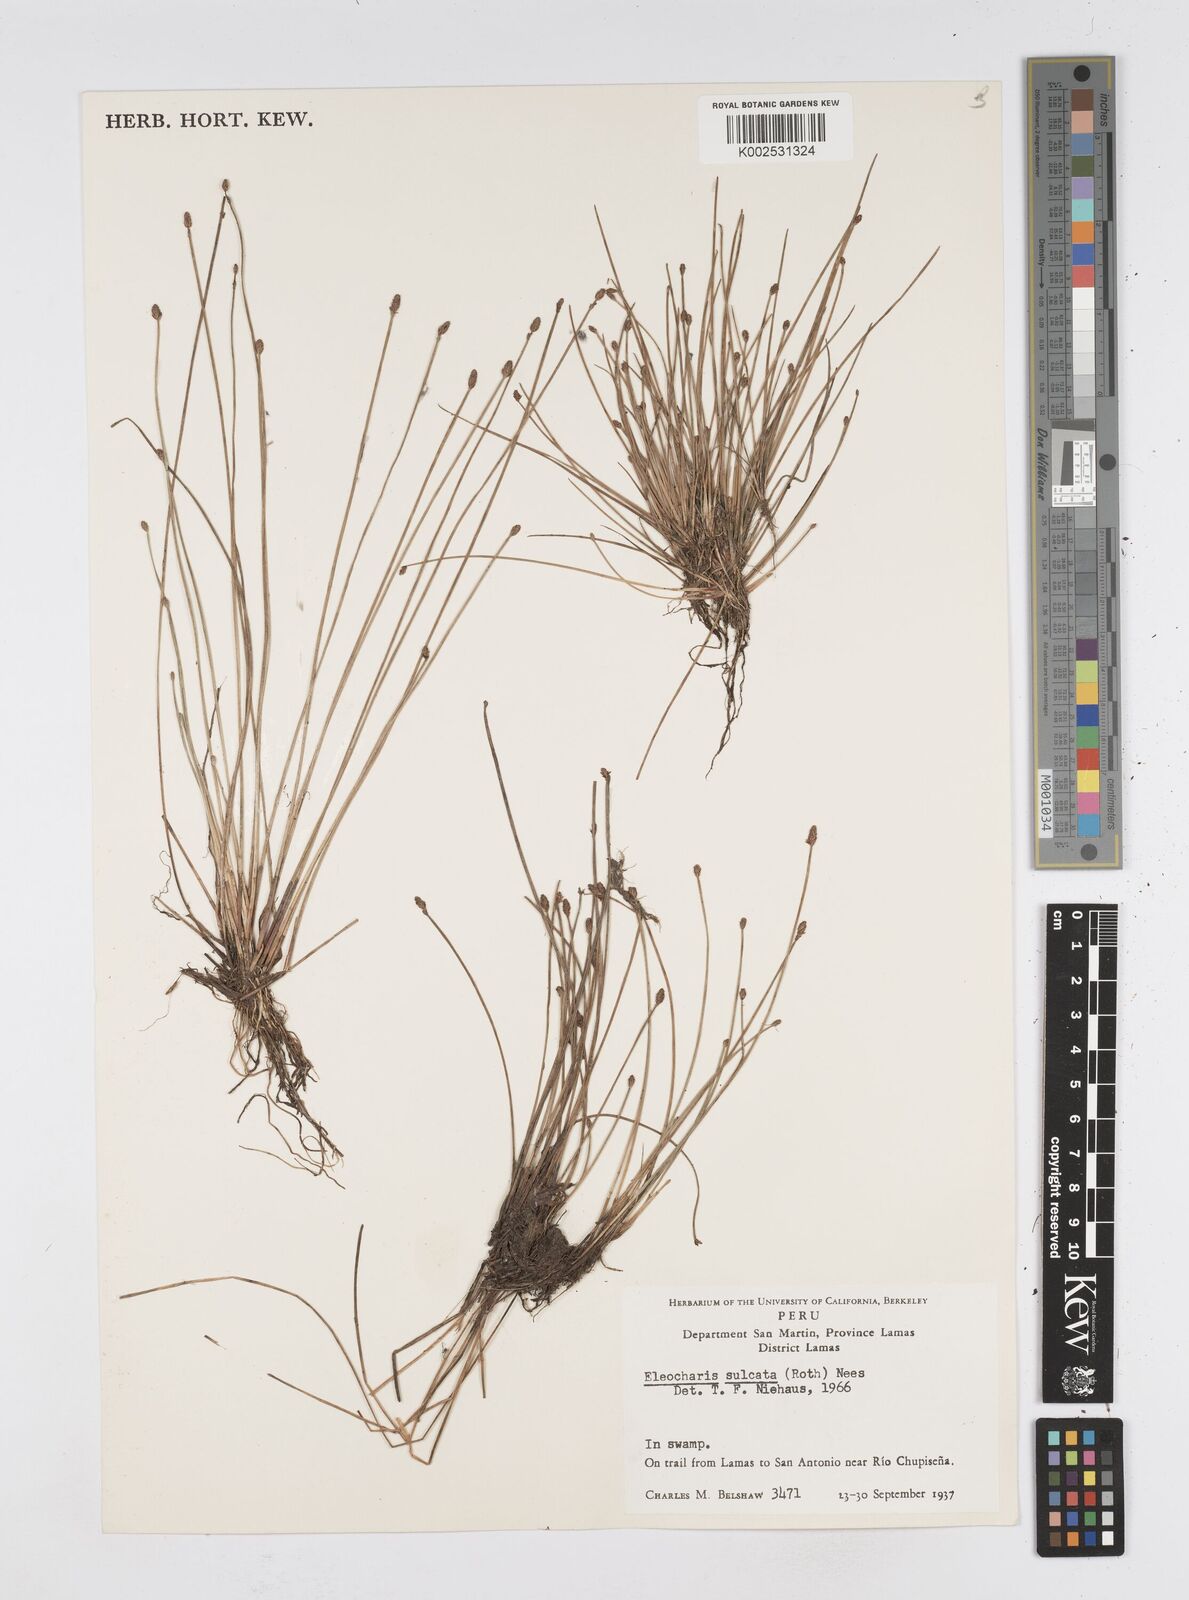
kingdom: Plantae
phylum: Tracheophyta
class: Liliopsida
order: Poales
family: Cyperaceae
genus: Eleocharis
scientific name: Eleocharis filiculmis
